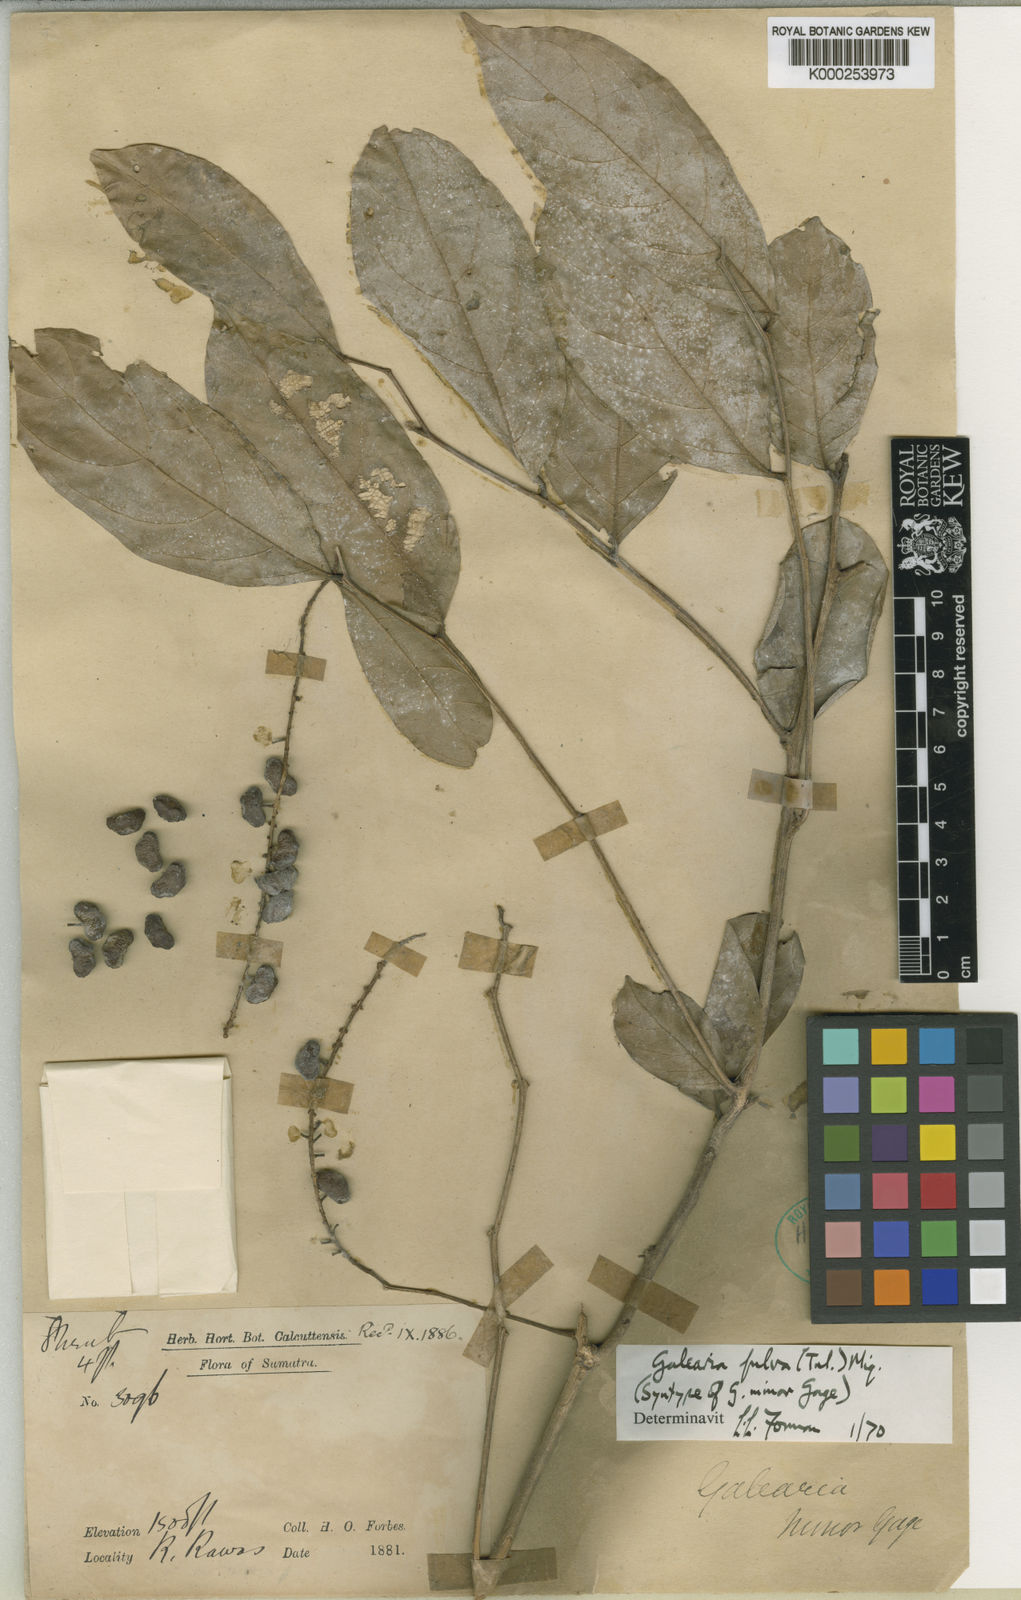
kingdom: Plantae
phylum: Tracheophyta
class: Magnoliopsida
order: Malpighiales
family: Pandaceae
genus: Galearia
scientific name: Galearia fulva
